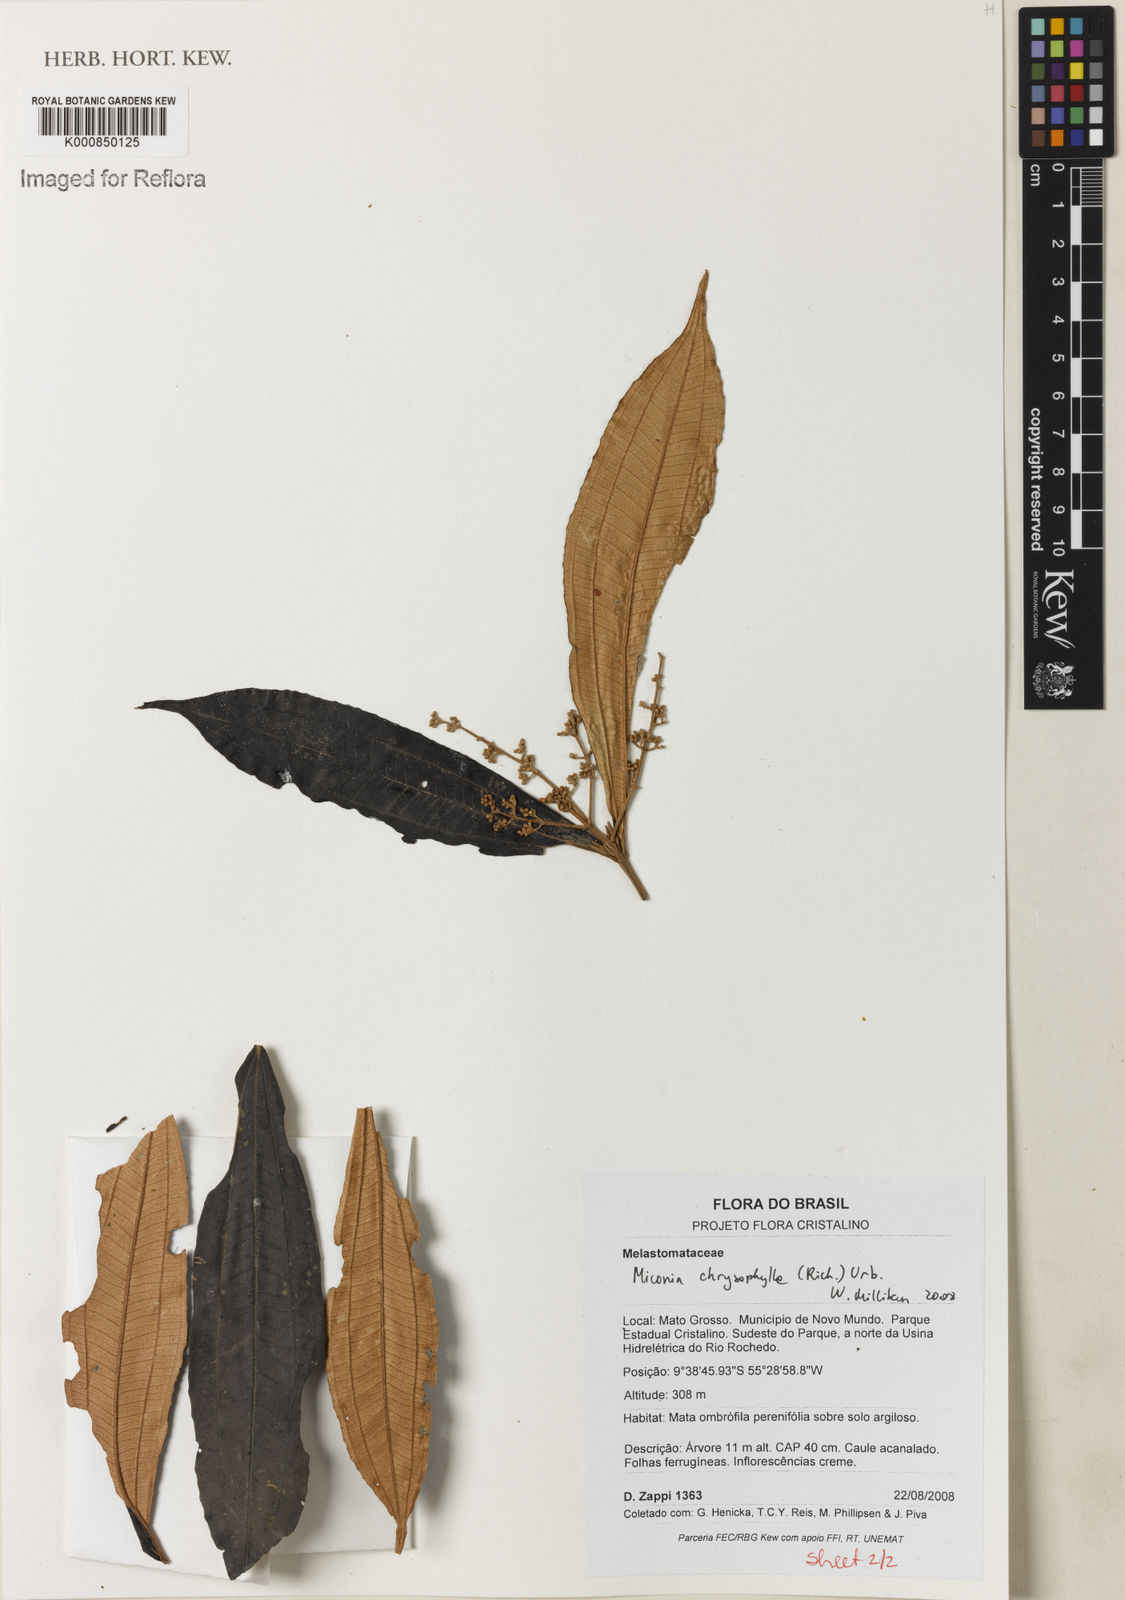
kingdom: Plantae
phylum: Tracheophyta
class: Magnoliopsida
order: Myrtales
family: Melastomataceae
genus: Miconia
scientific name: Miconia chrysophylla
